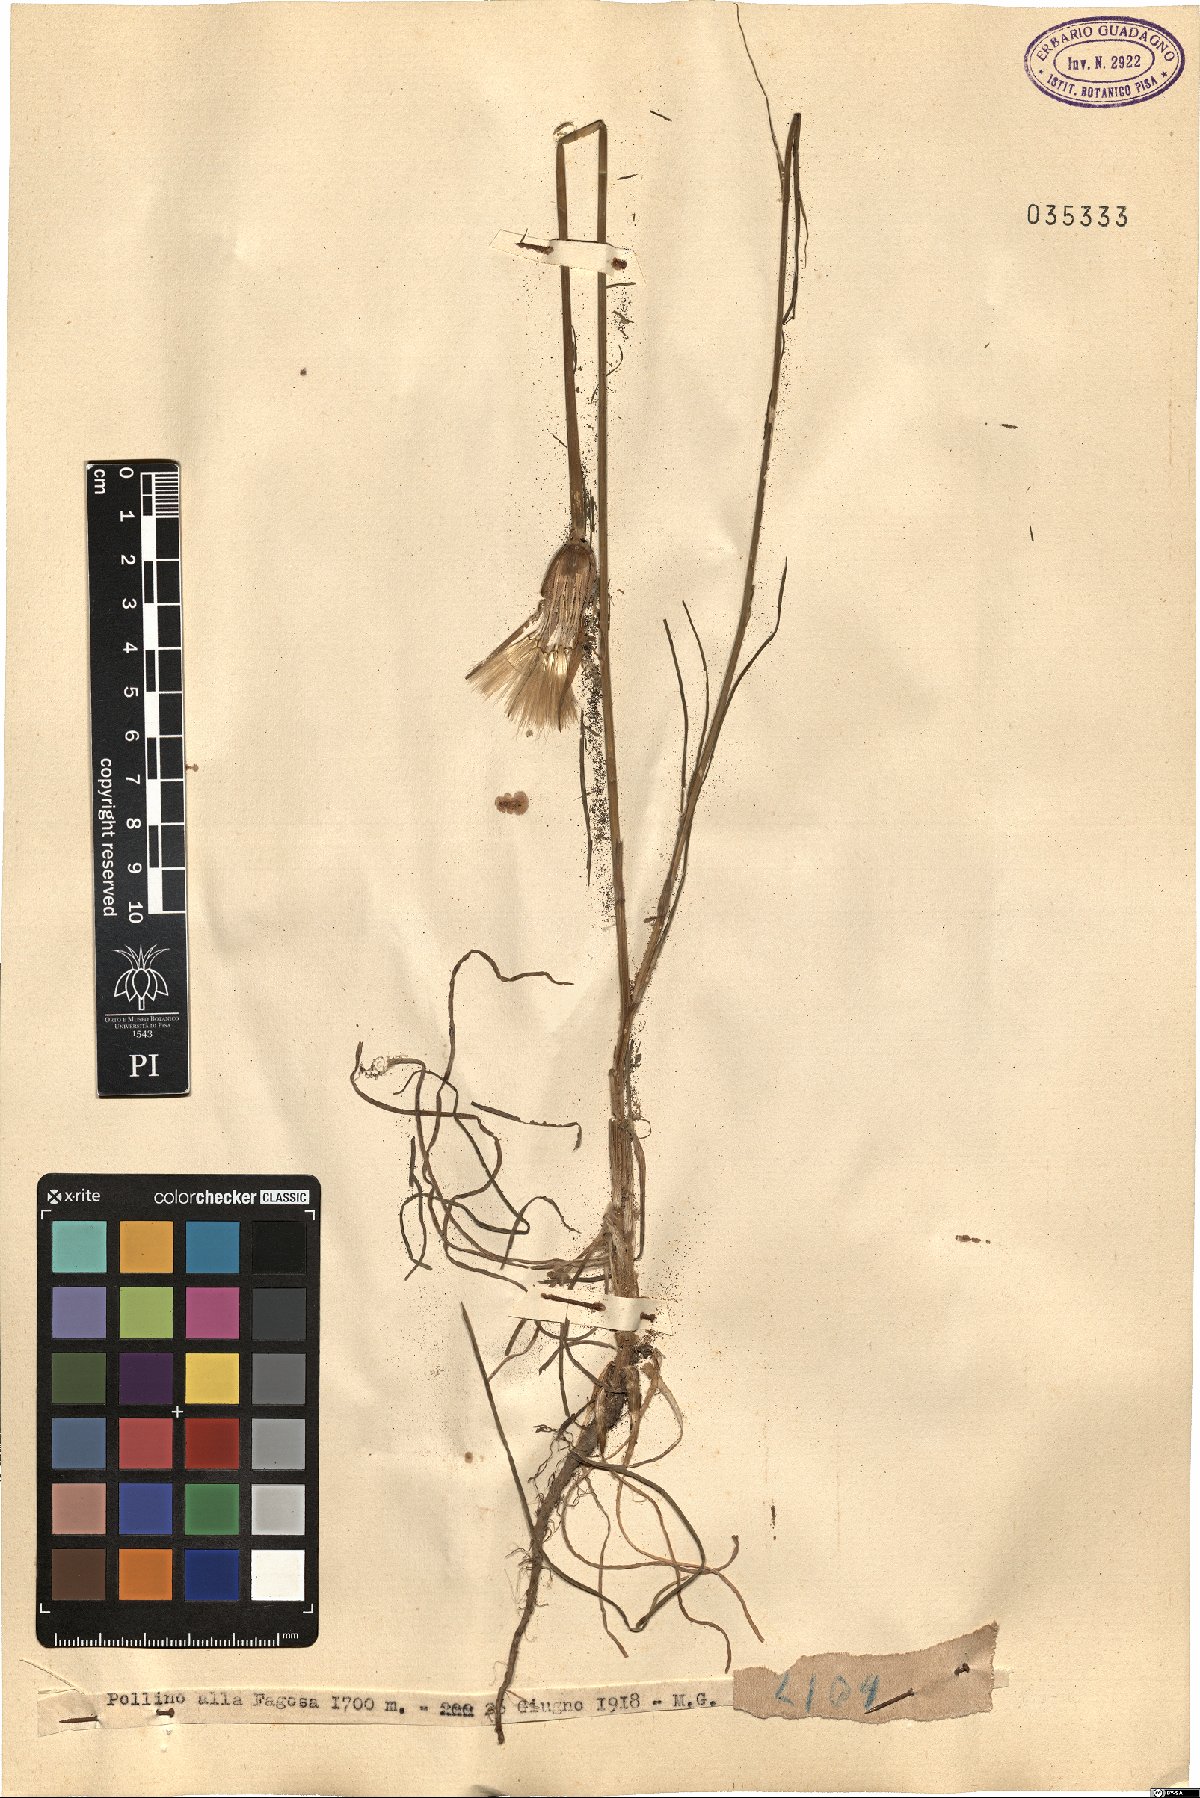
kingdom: Plantae
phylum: Tracheophyta
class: Magnoliopsida
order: Asterales
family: Asteraceae
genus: Geropogon
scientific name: Geropogon
